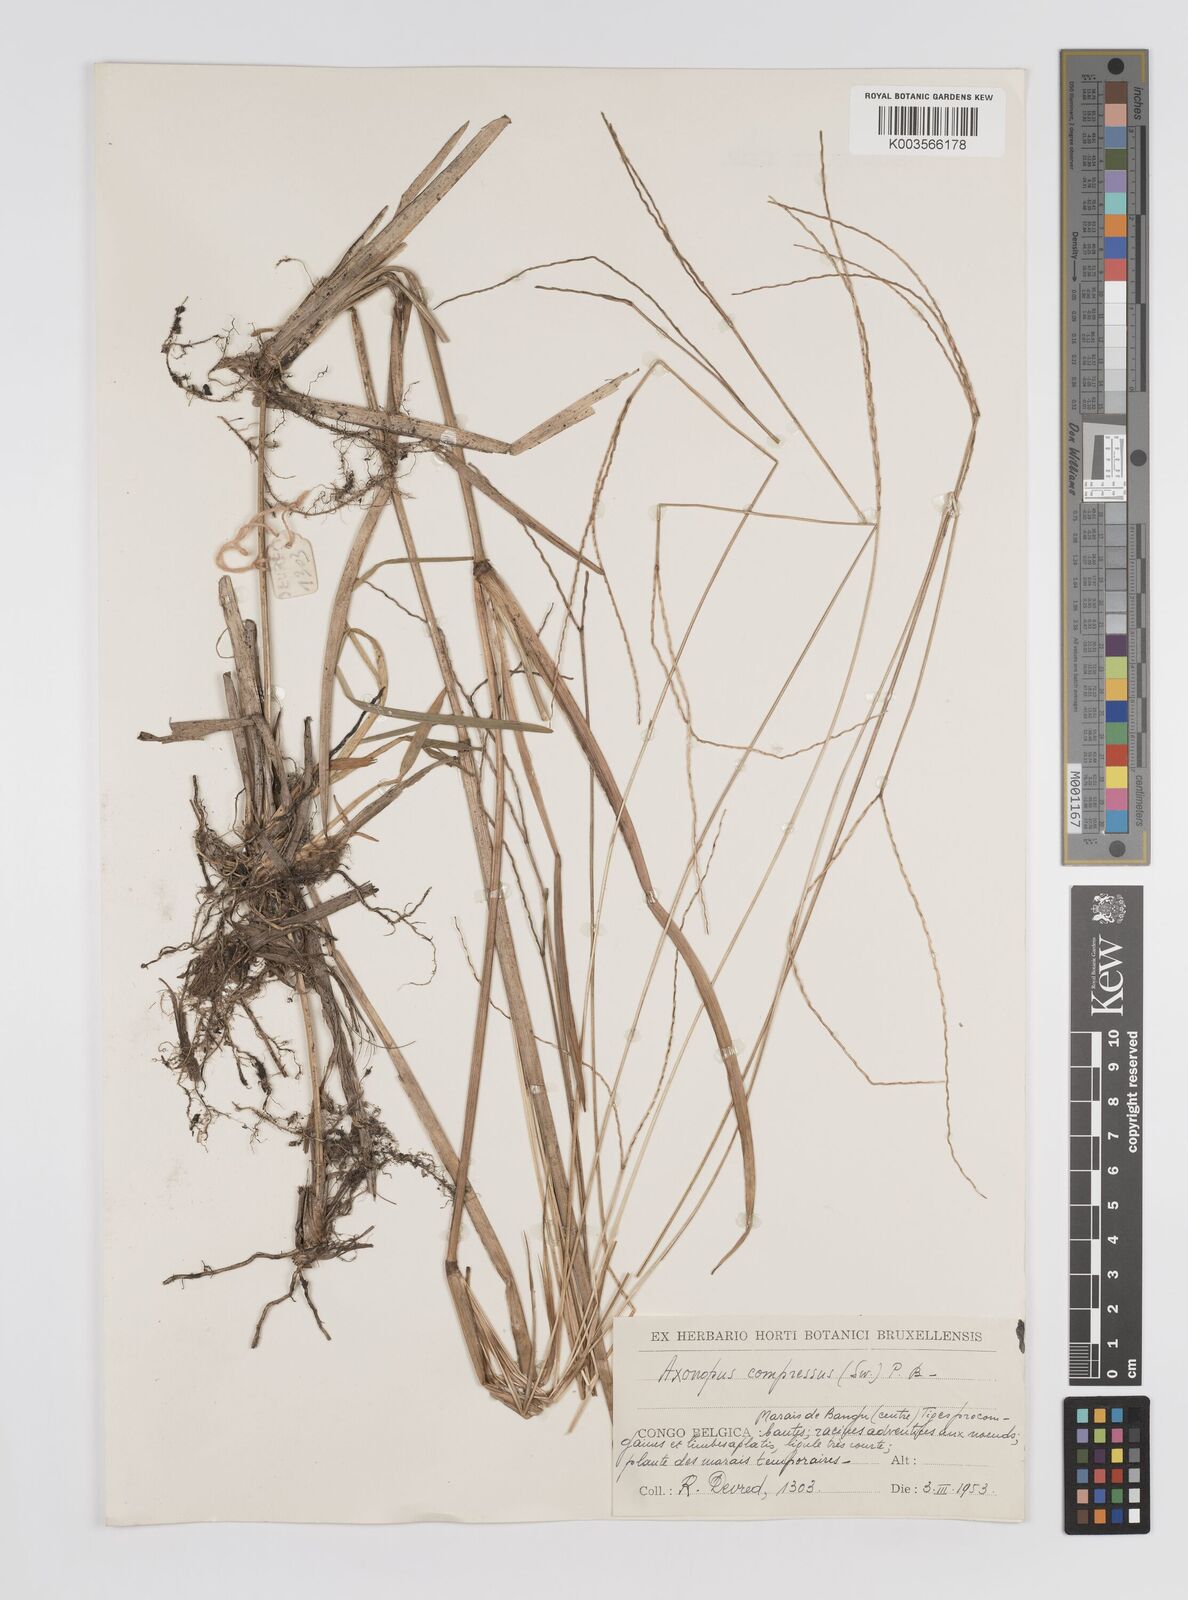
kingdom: Plantae
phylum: Tracheophyta
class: Liliopsida
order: Poales
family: Poaceae
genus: Axonopus
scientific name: Axonopus flexuosus
